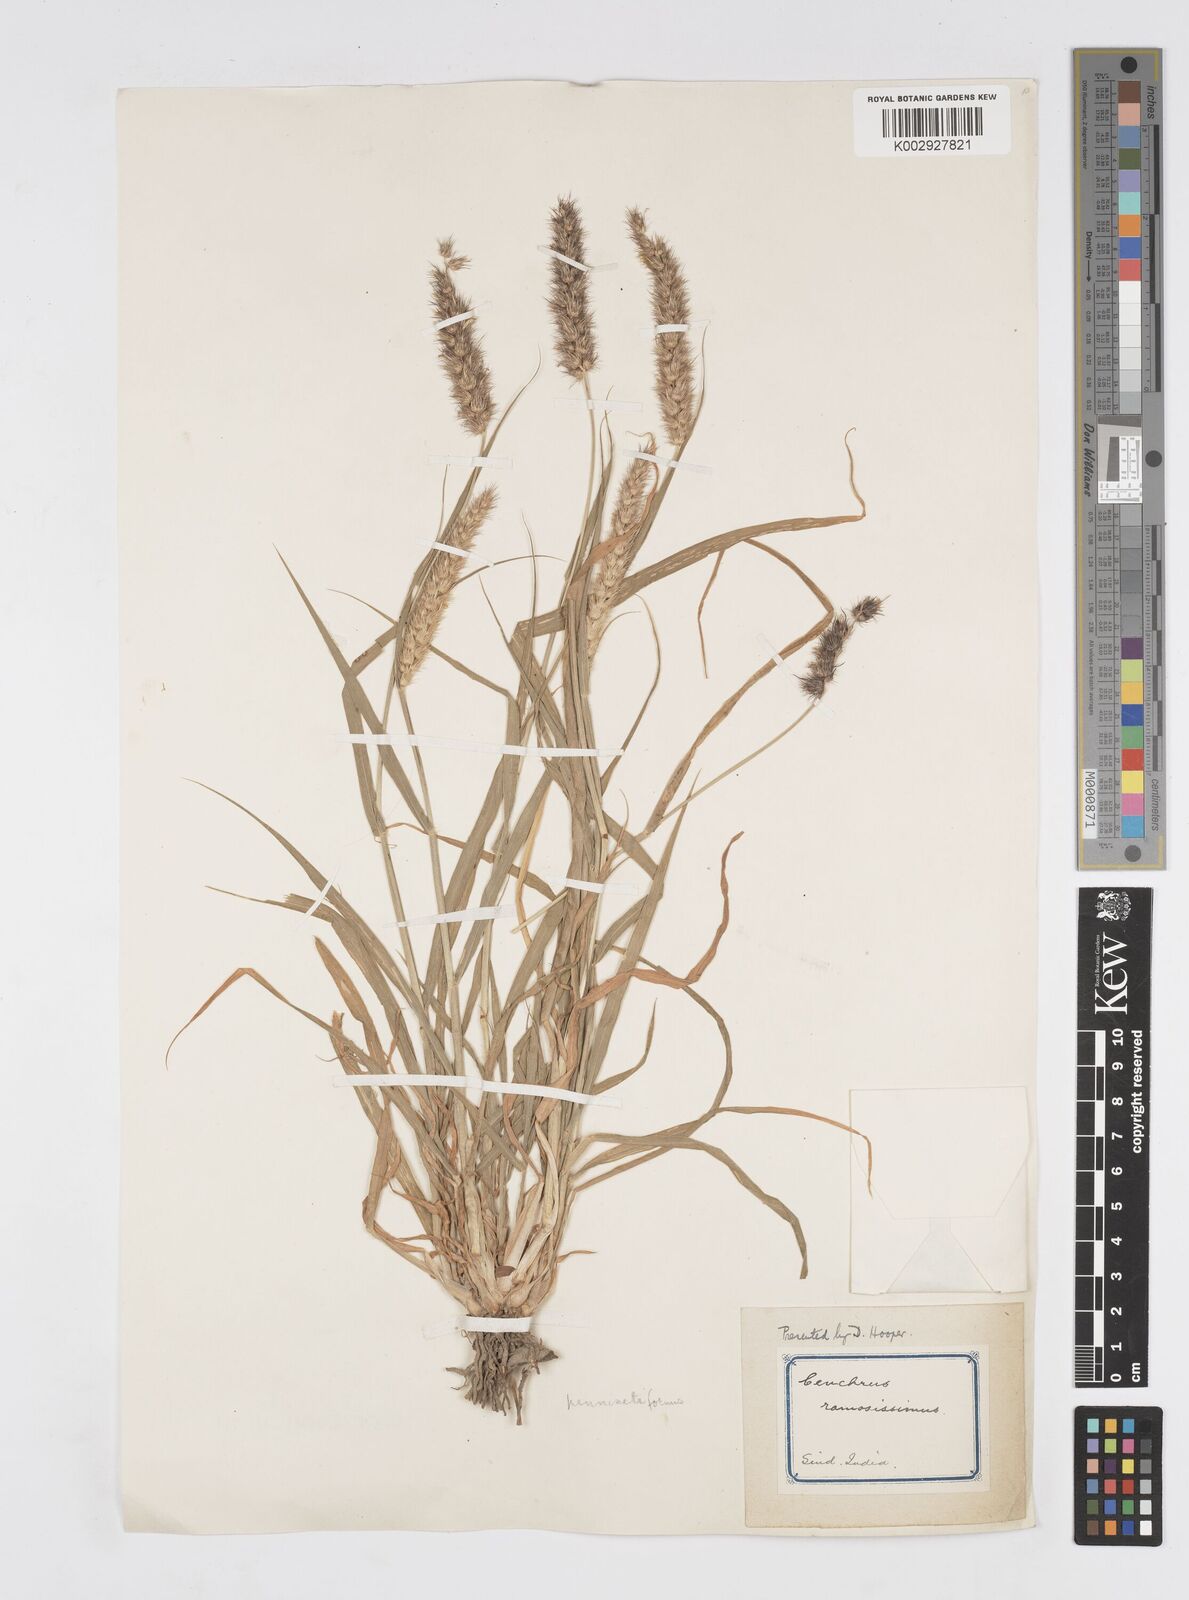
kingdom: Plantae
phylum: Tracheophyta
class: Liliopsida
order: Poales
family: Poaceae
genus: Cenchrus
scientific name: Cenchrus ciliaris
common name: Buffelgrass
